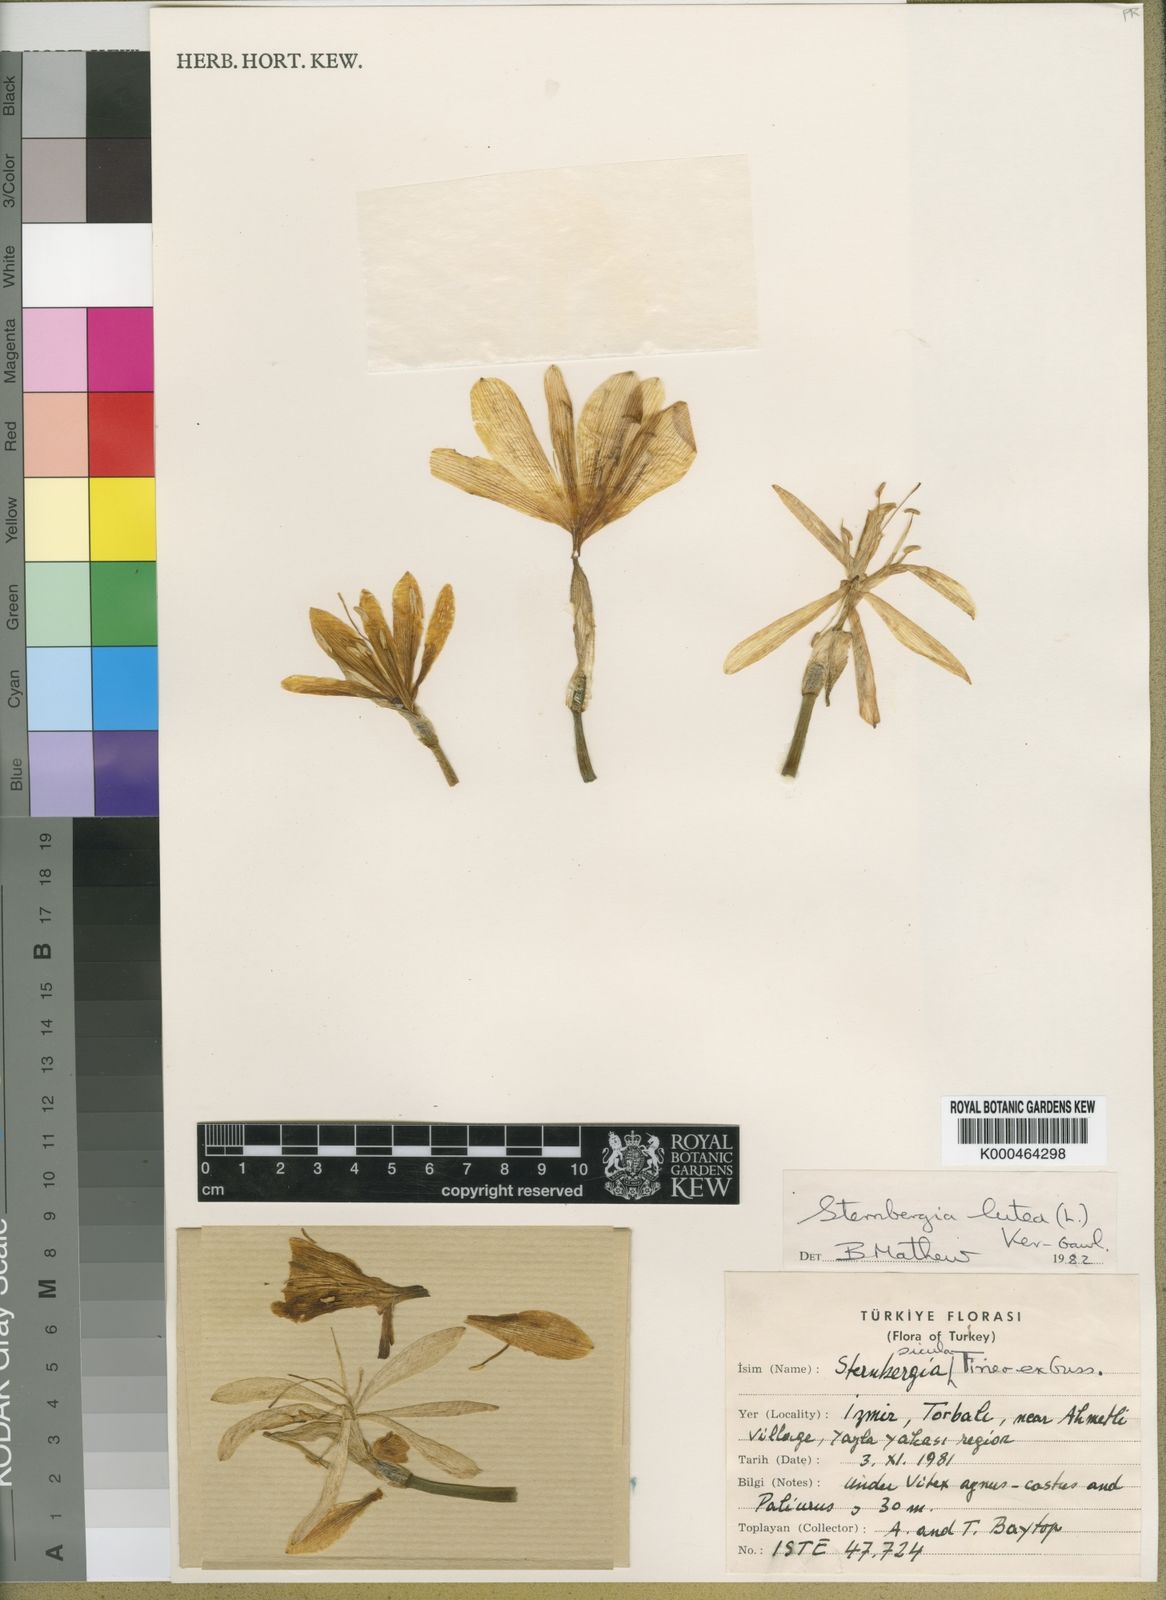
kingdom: Plantae
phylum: Tracheophyta
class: Liliopsida
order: Asparagales
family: Amaryllidaceae
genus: Sternbergia
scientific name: Sternbergia
